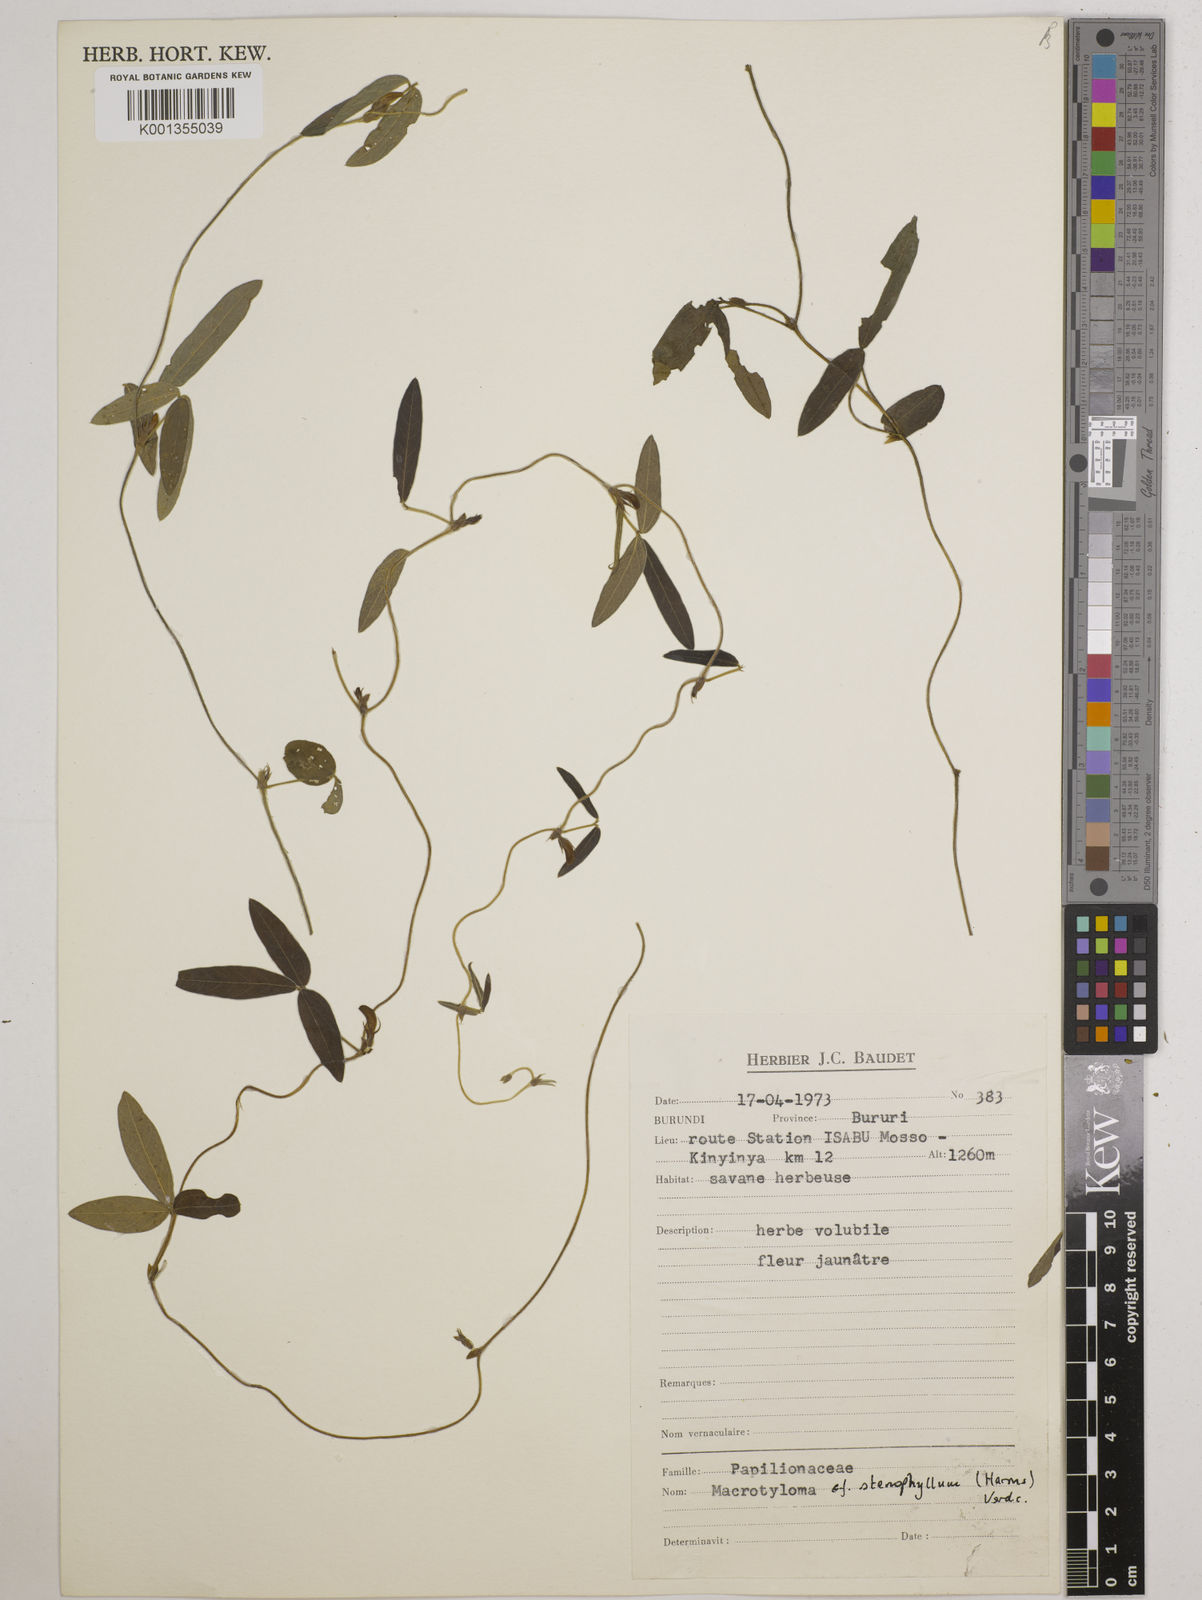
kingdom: Plantae
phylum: Tracheophyta
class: Magnoliopsida
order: Fabales
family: Fabaceae
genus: Macrotyloma
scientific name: Macrotyloma stenophyllum
